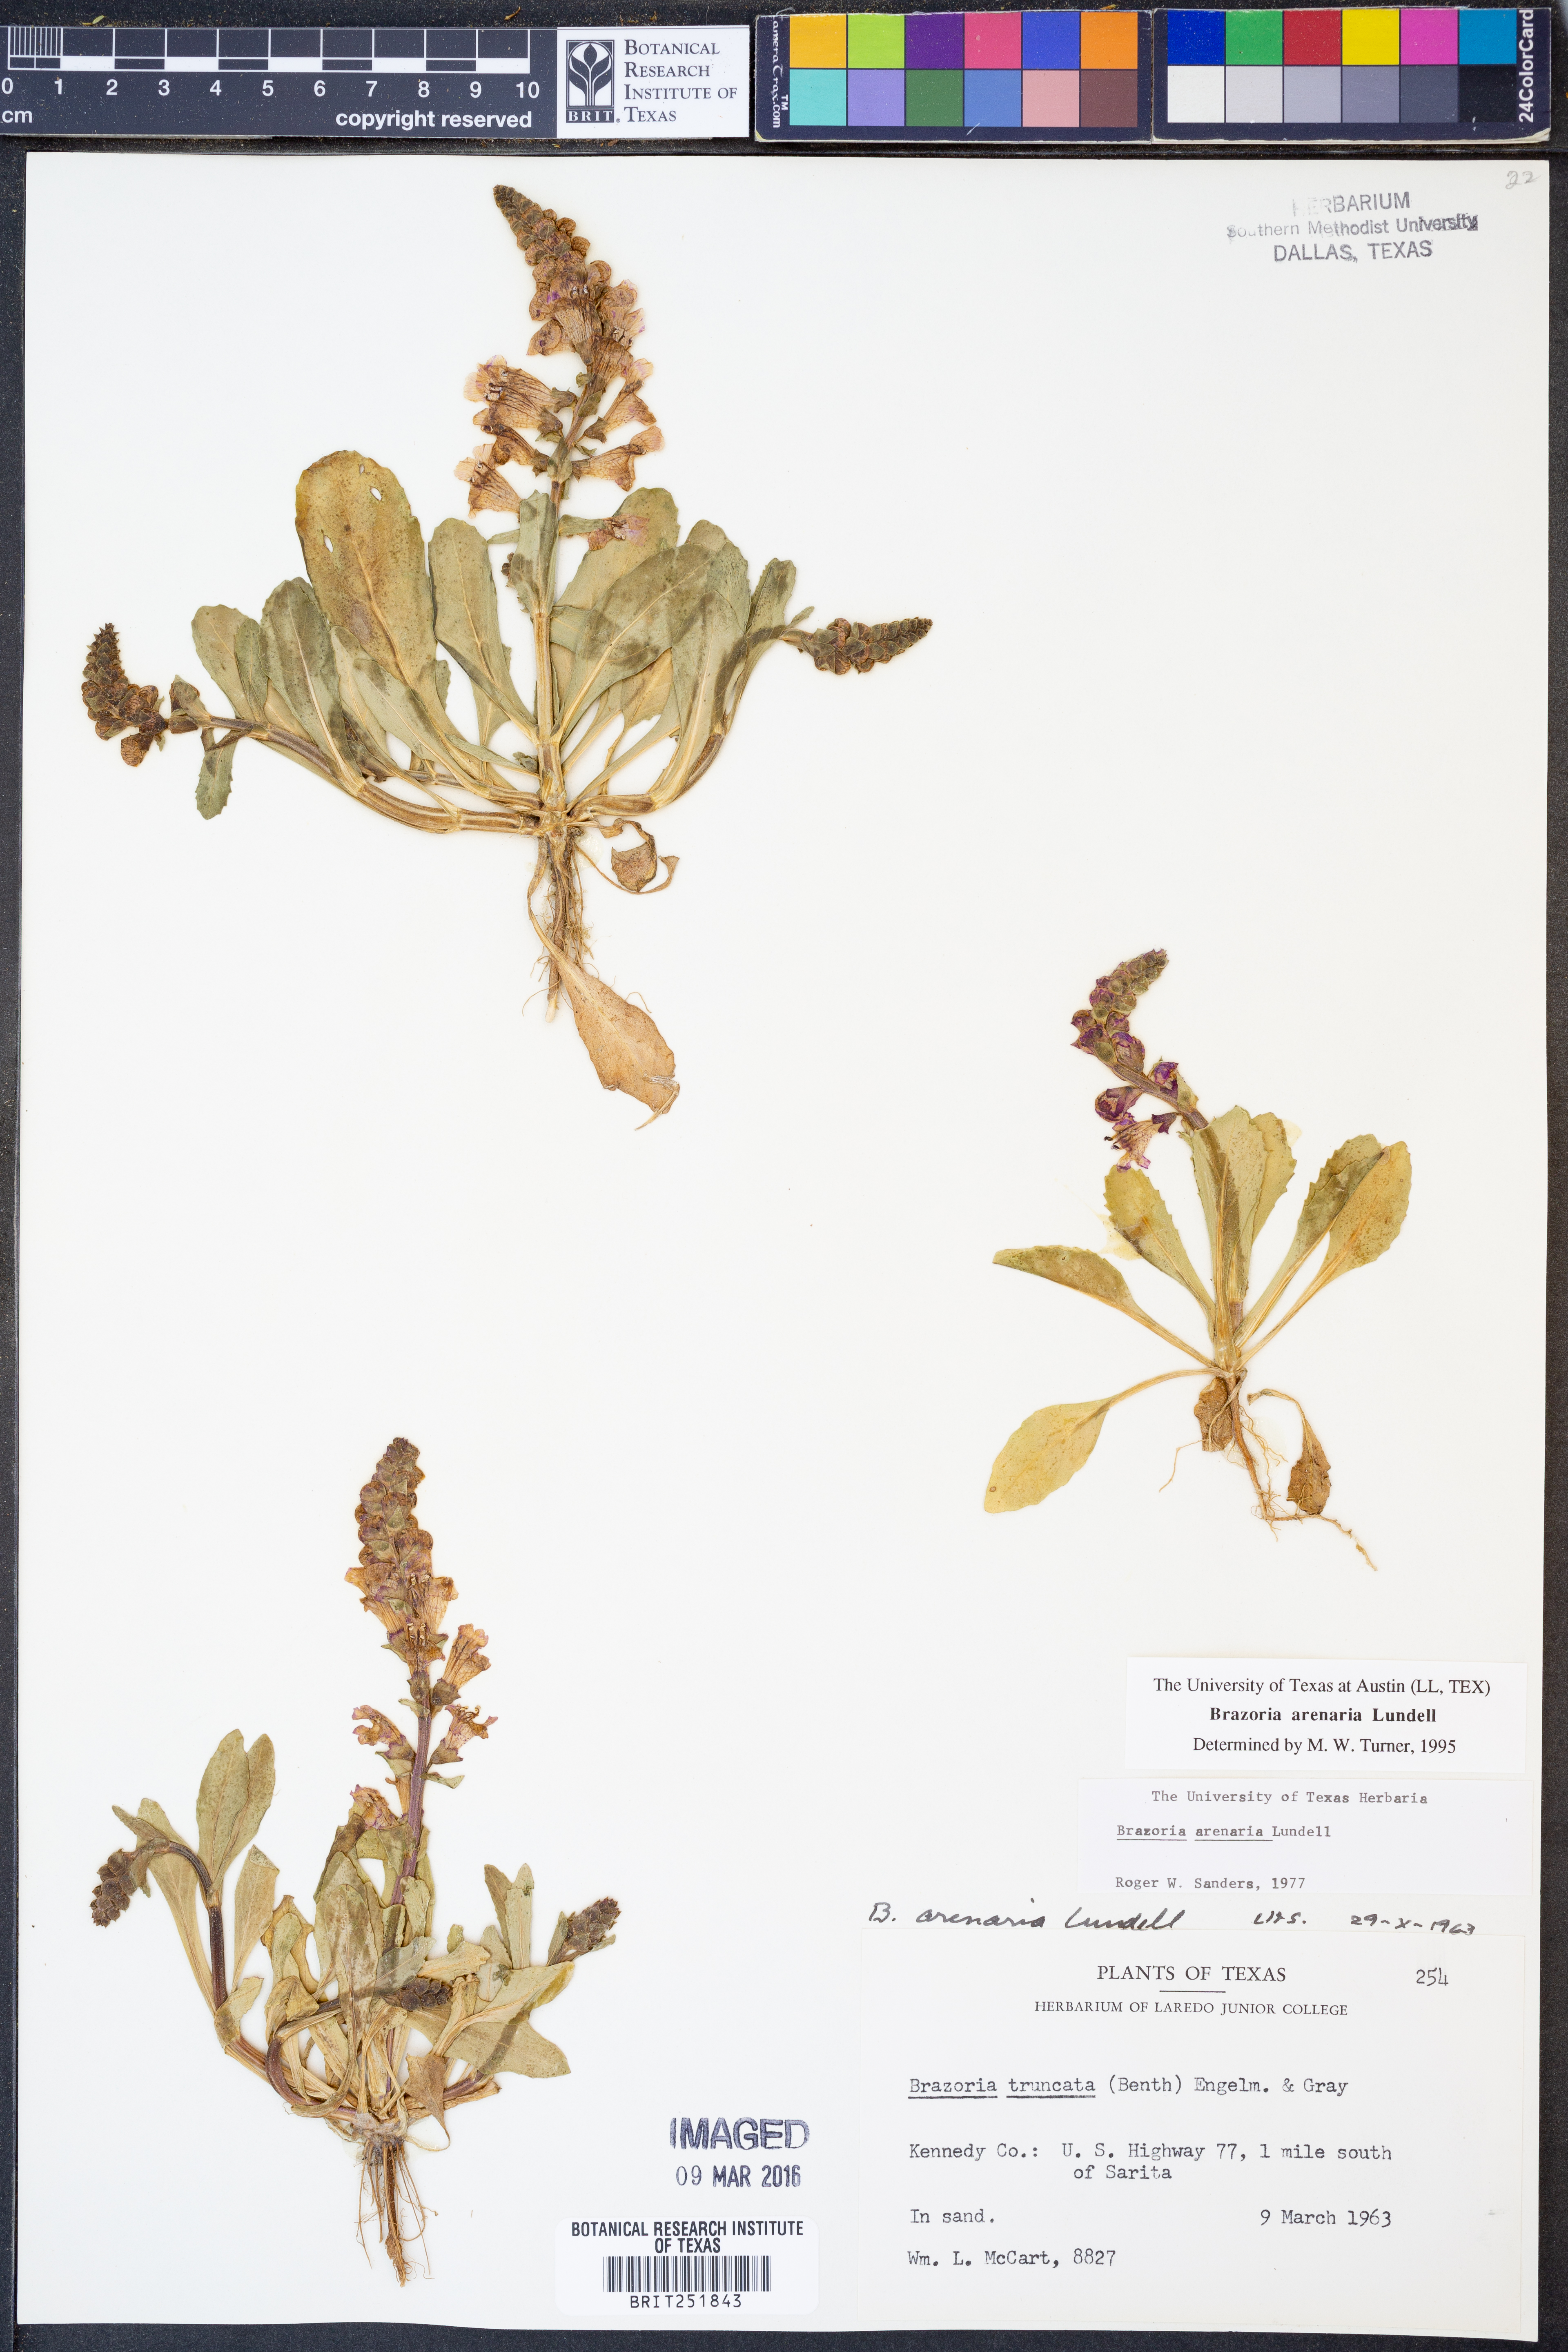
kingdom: Plantae
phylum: Tracheophyta
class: Magnoliopsida
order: Lamiales
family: Lamiaceae
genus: Brazoria
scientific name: Brazoria arenaria
